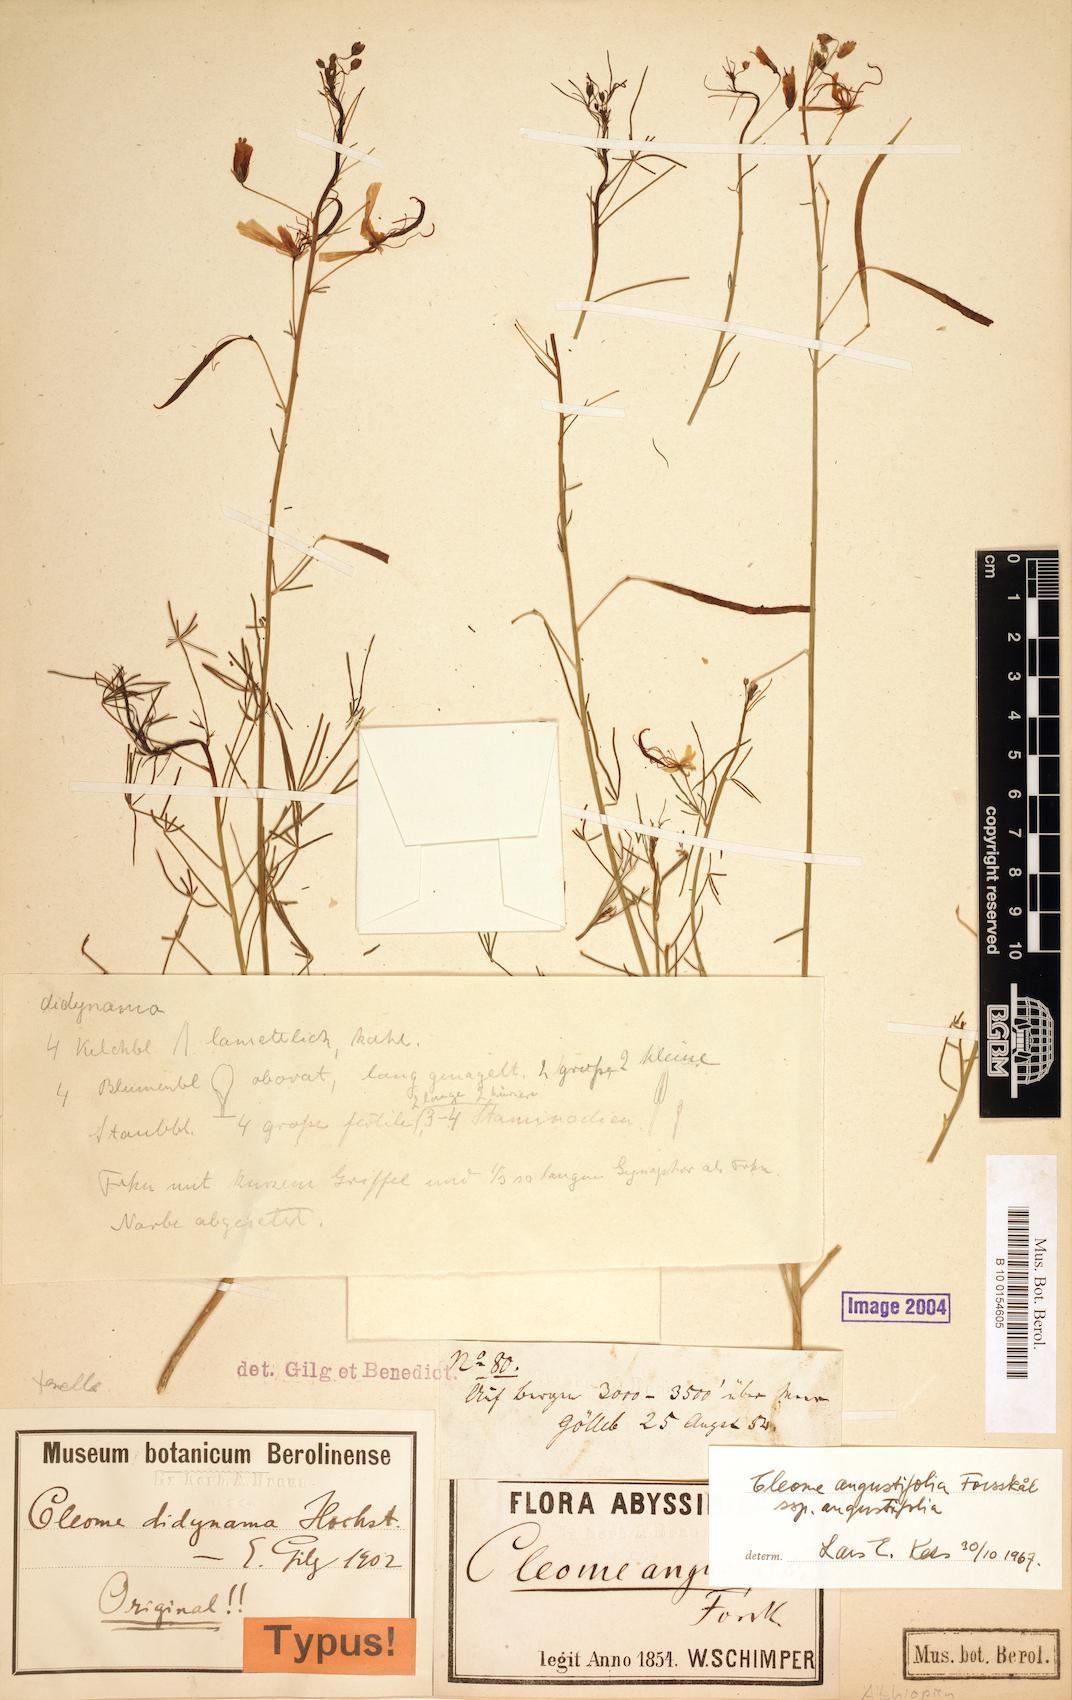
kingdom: Plantae
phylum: Tracheophyta
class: Magnoliopsida
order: Brassicales
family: Cleomaceae
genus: Coalisina
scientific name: Coalisina
